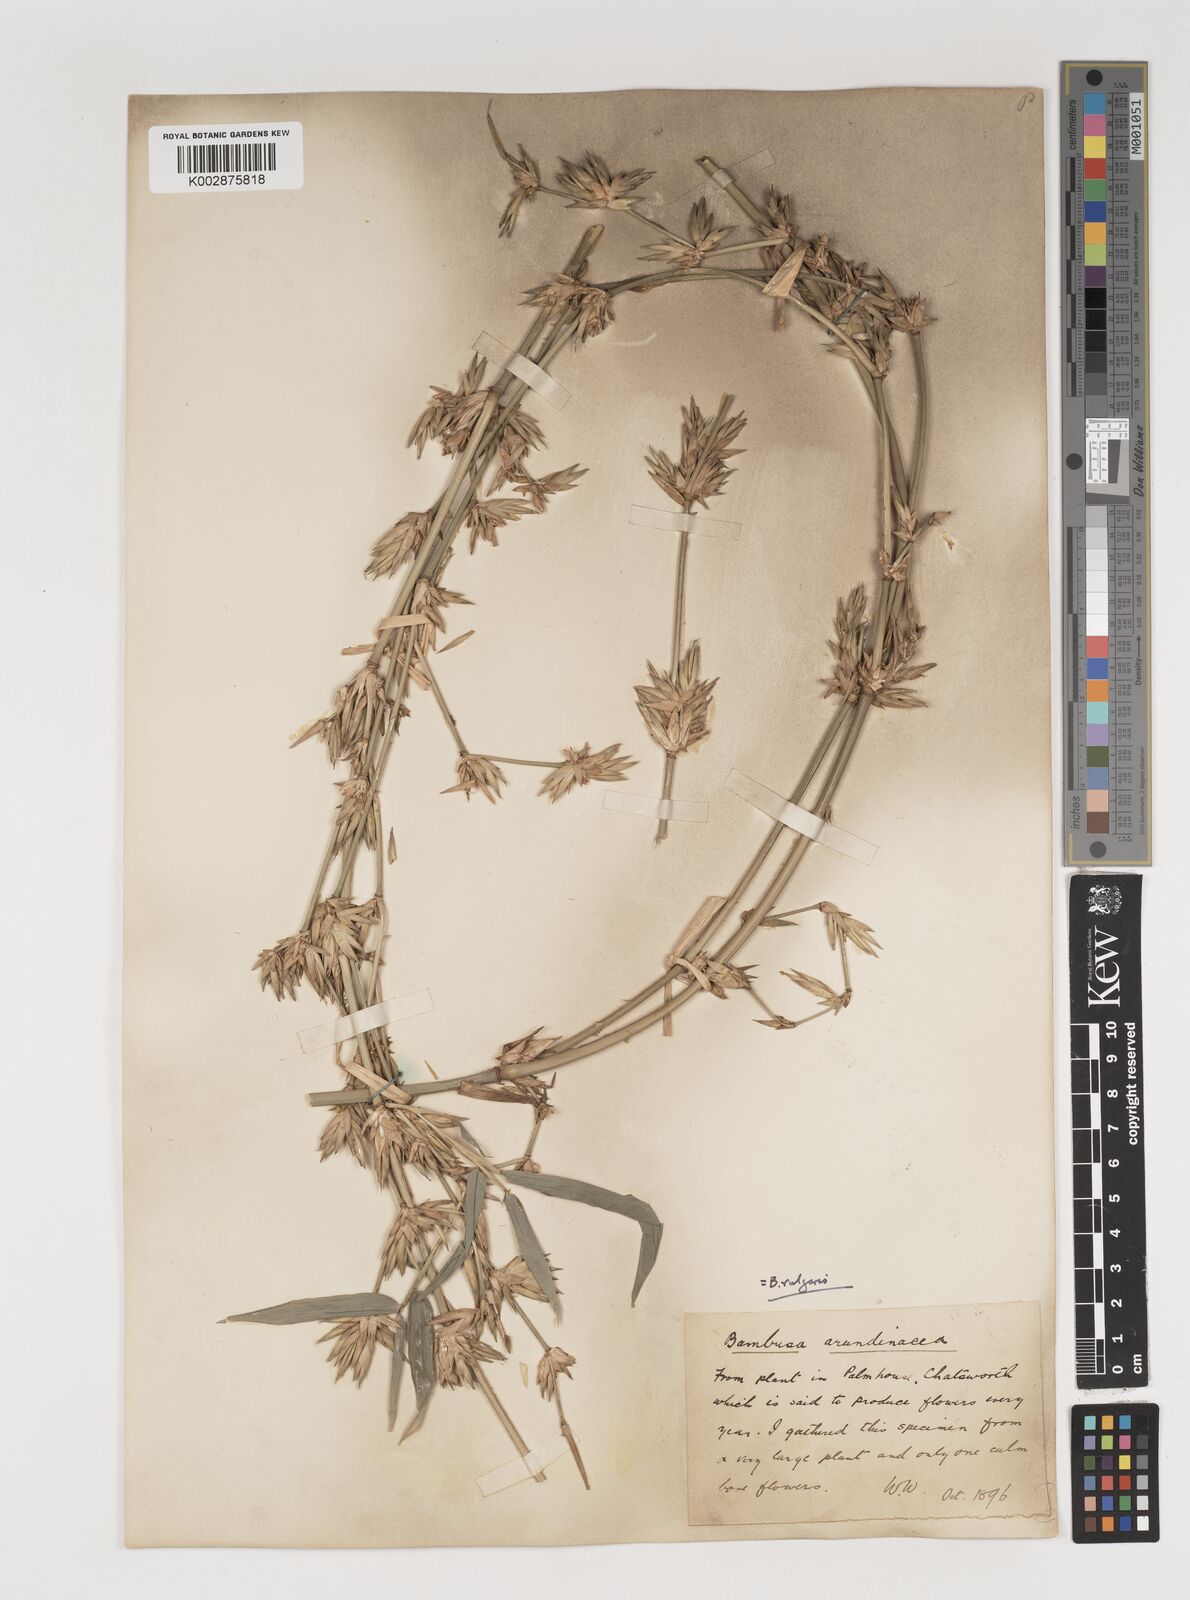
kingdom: Plantae
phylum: Tracheophyta
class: Liliopsida
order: Poales
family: Poaceae
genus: Bambusa
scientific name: Bambusa balcooa
